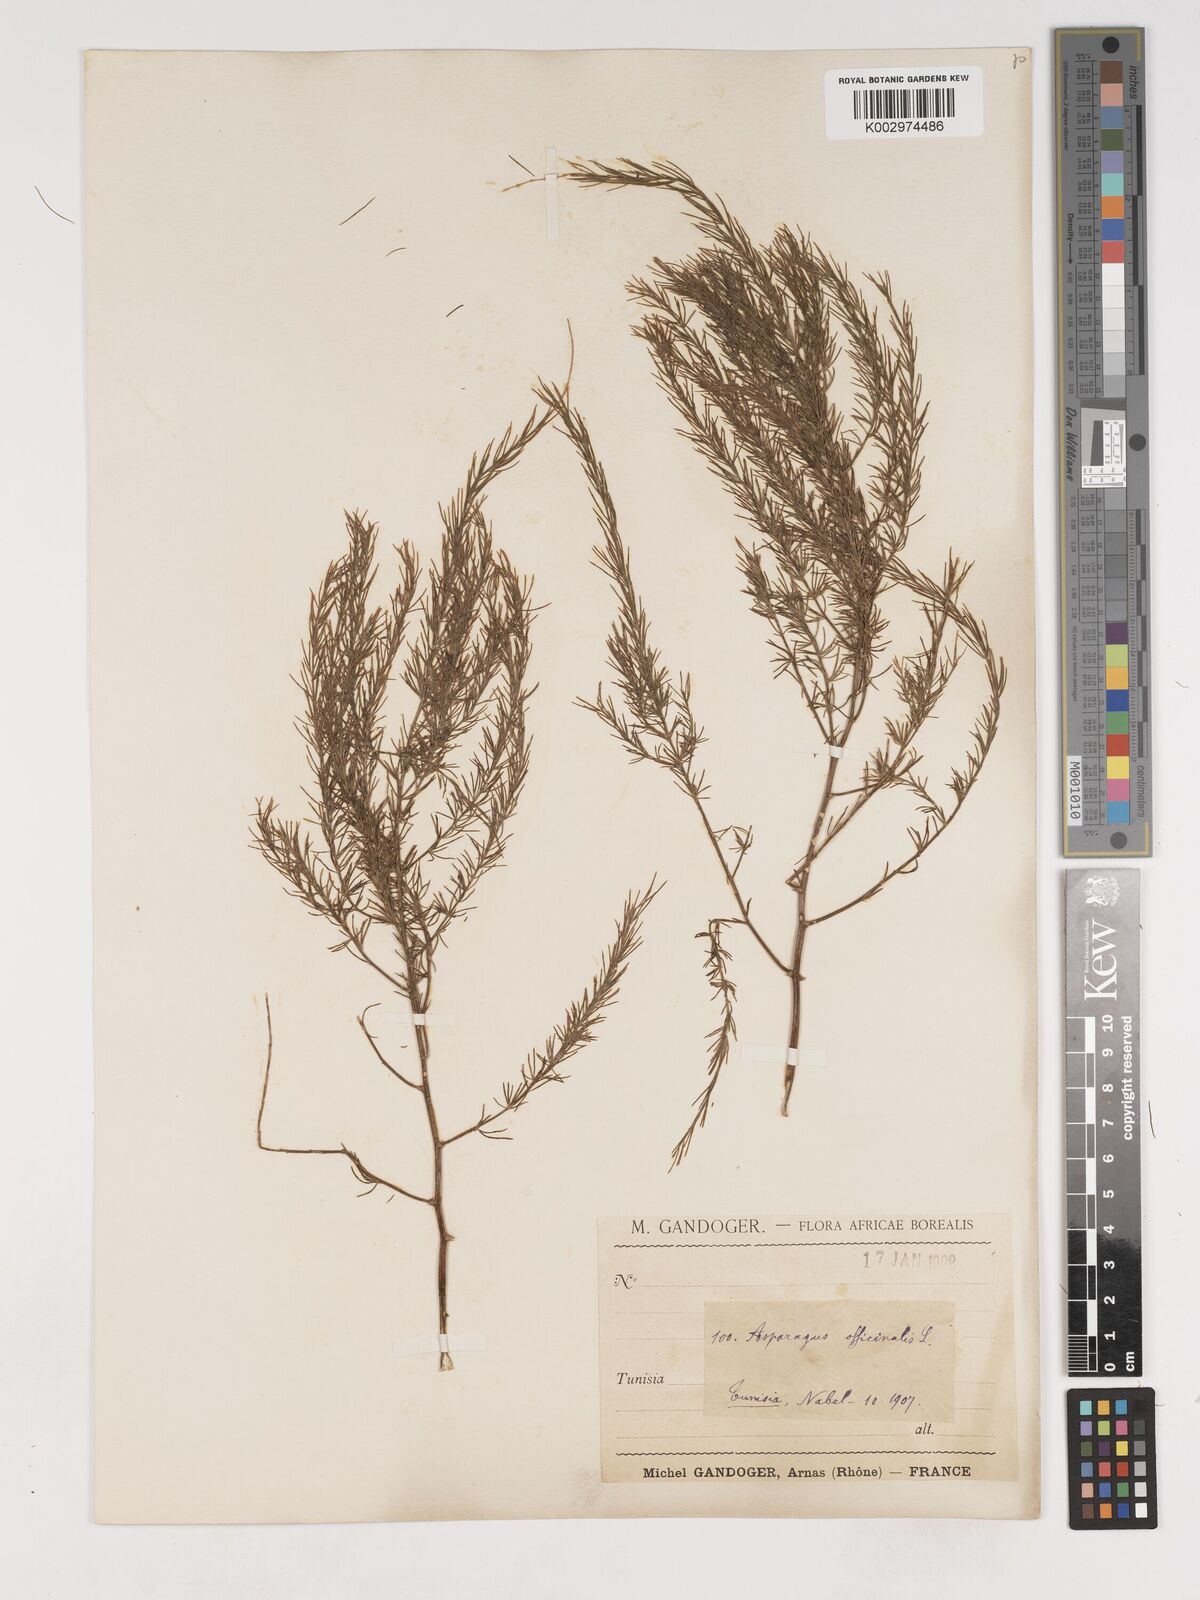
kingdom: Plantae
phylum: Tracheophyta
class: Liliopsida
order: Asparagales
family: Asparagaceae
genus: Asparagus
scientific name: Asparagus officinalis
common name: Garden asparagus
